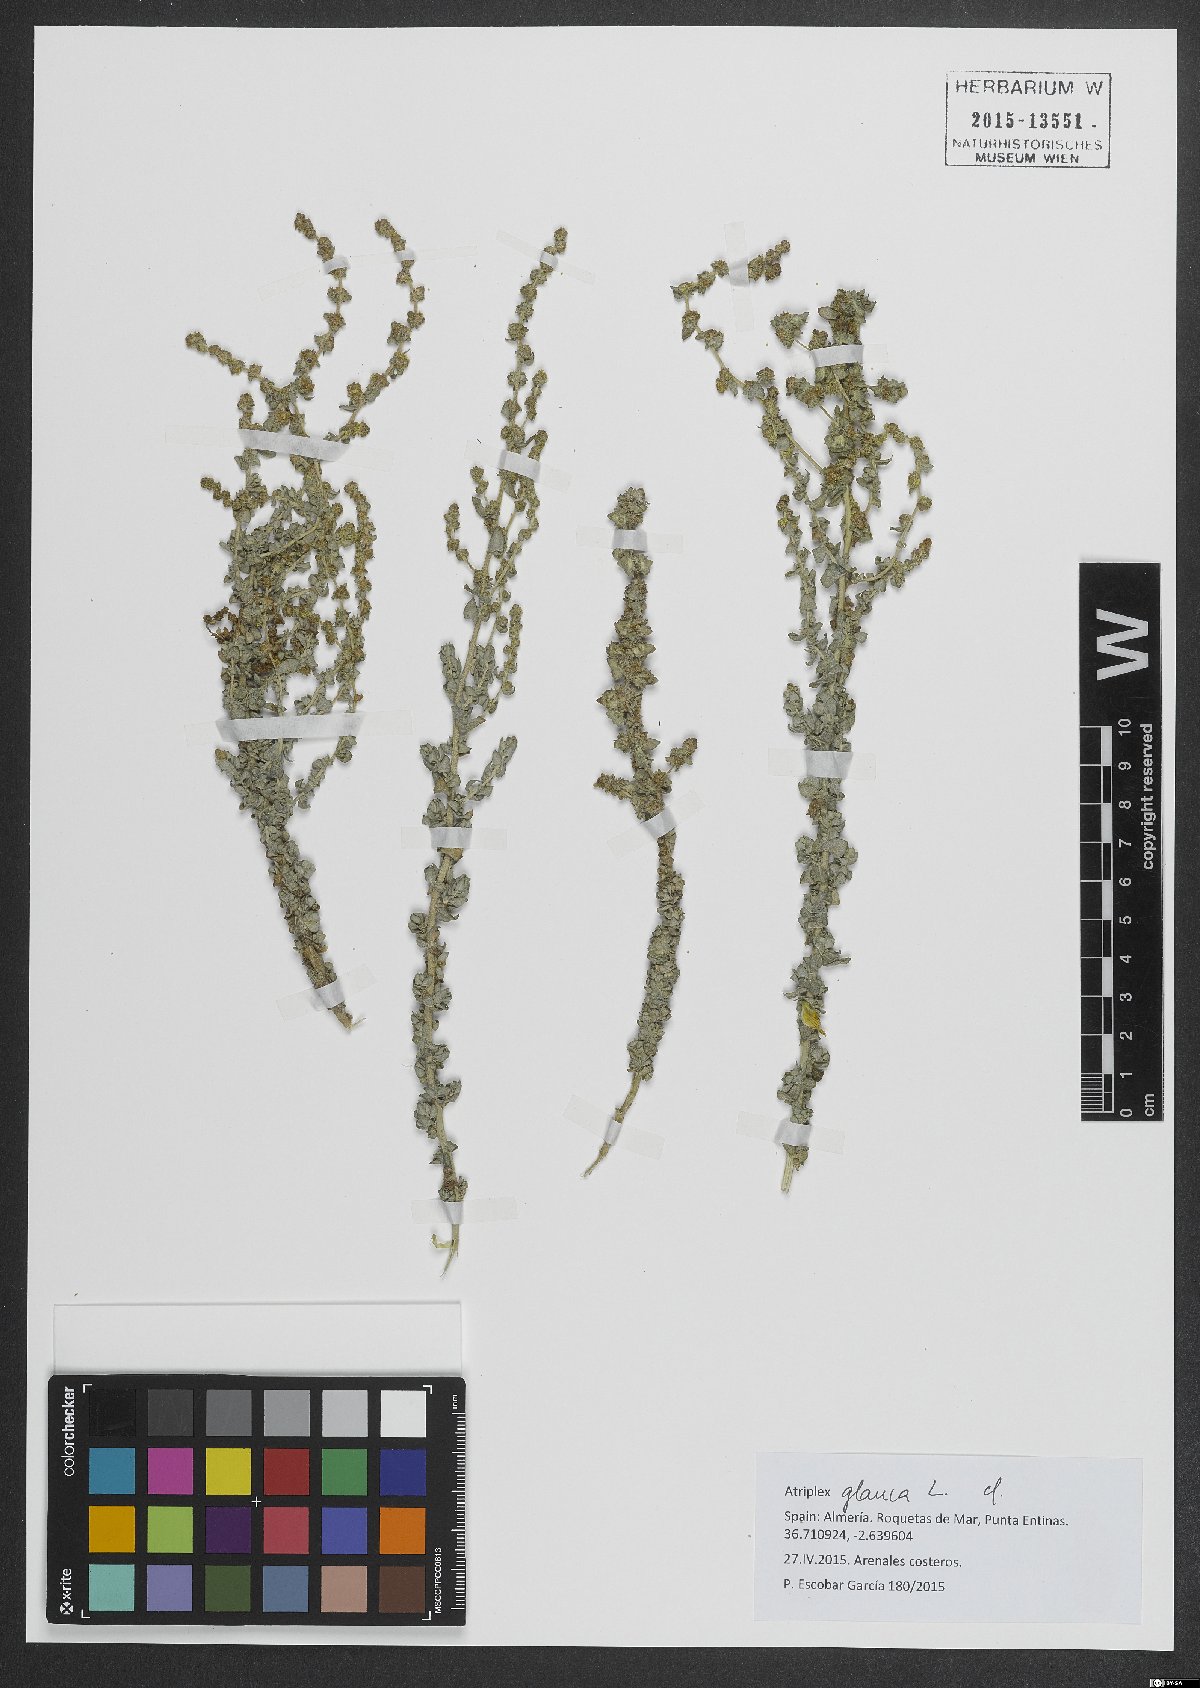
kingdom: Plantae
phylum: Tracheophyta
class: Magnoliopsida
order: Caryophyllales
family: Amaranthaceae
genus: Atriplex
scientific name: Atriplex glauca
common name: Waxy saltbush
